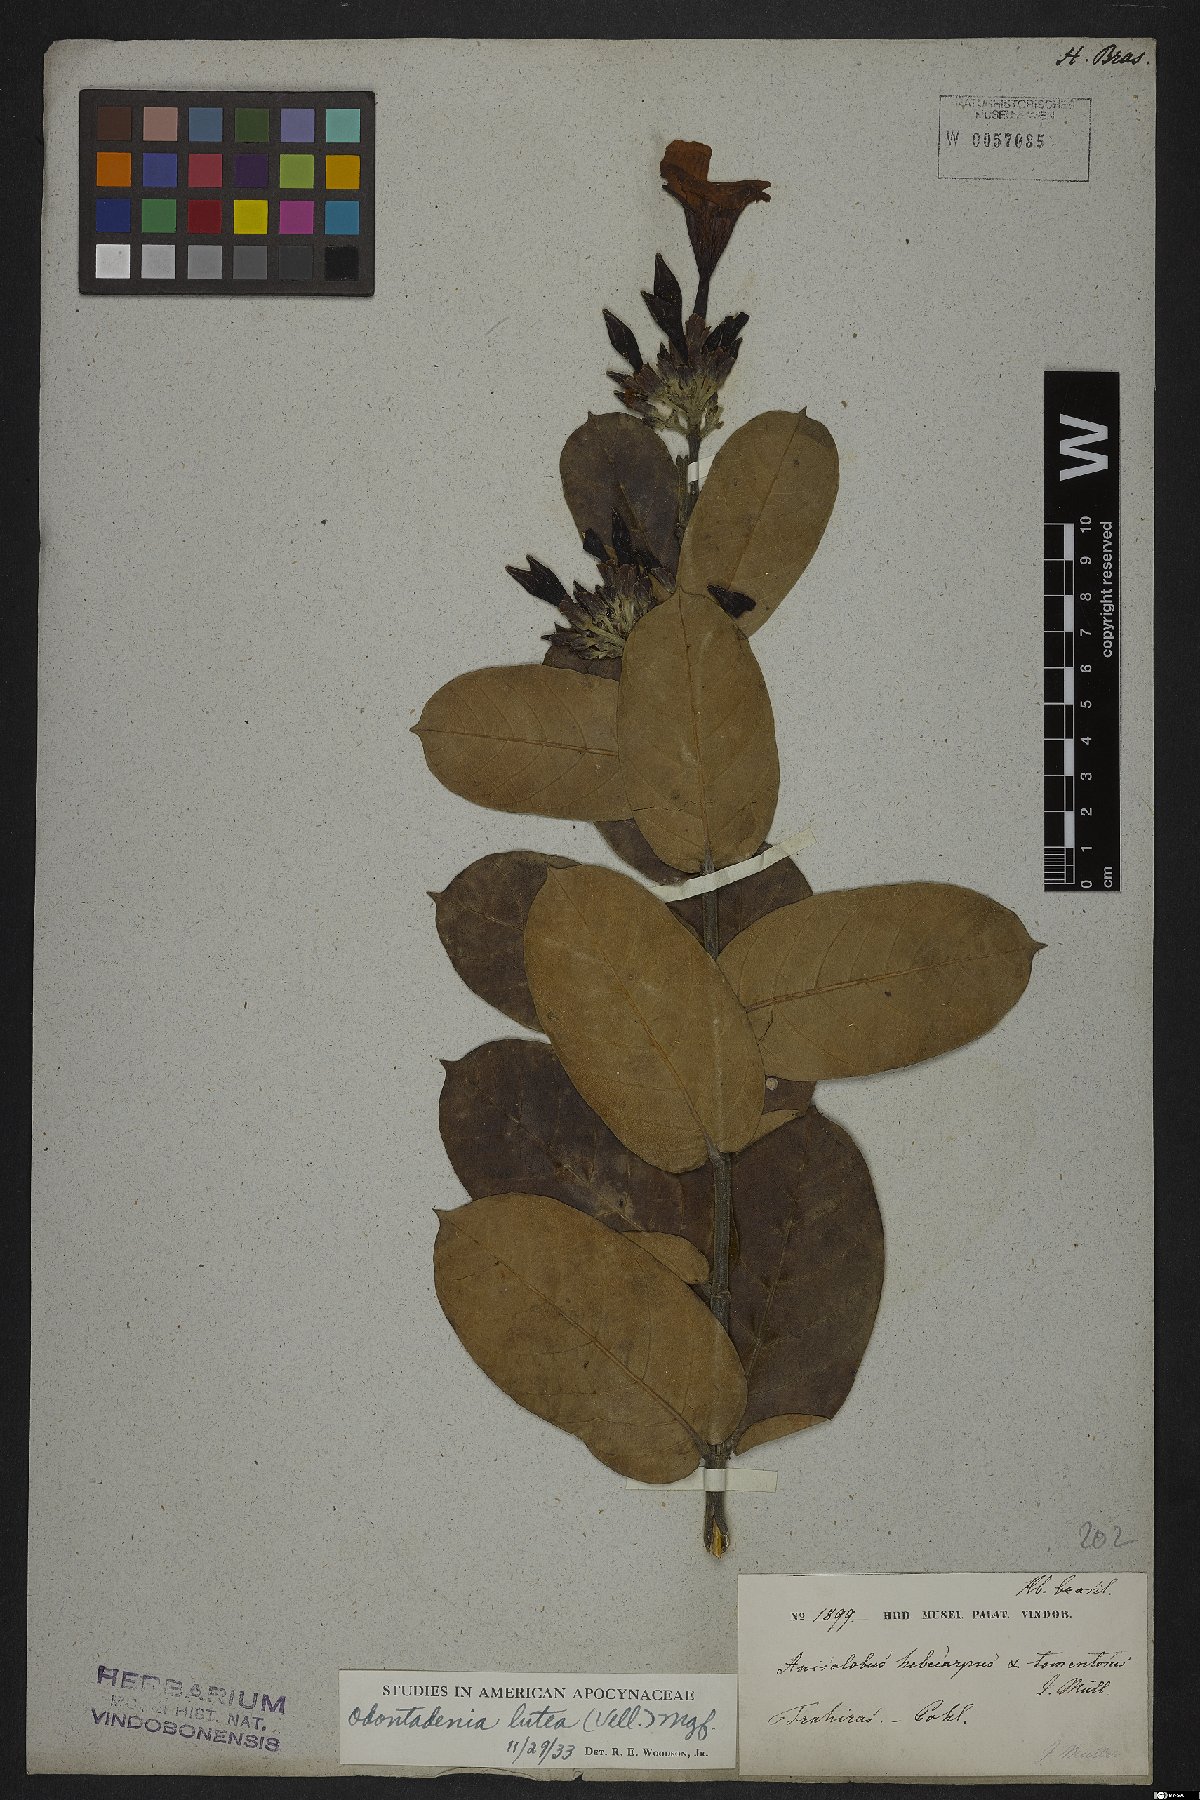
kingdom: Plantae
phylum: Tracheophyta
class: Magnoliopsida
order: Gentianales
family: Apocynaceae
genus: Odontadenia
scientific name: Odontadenia lutea
